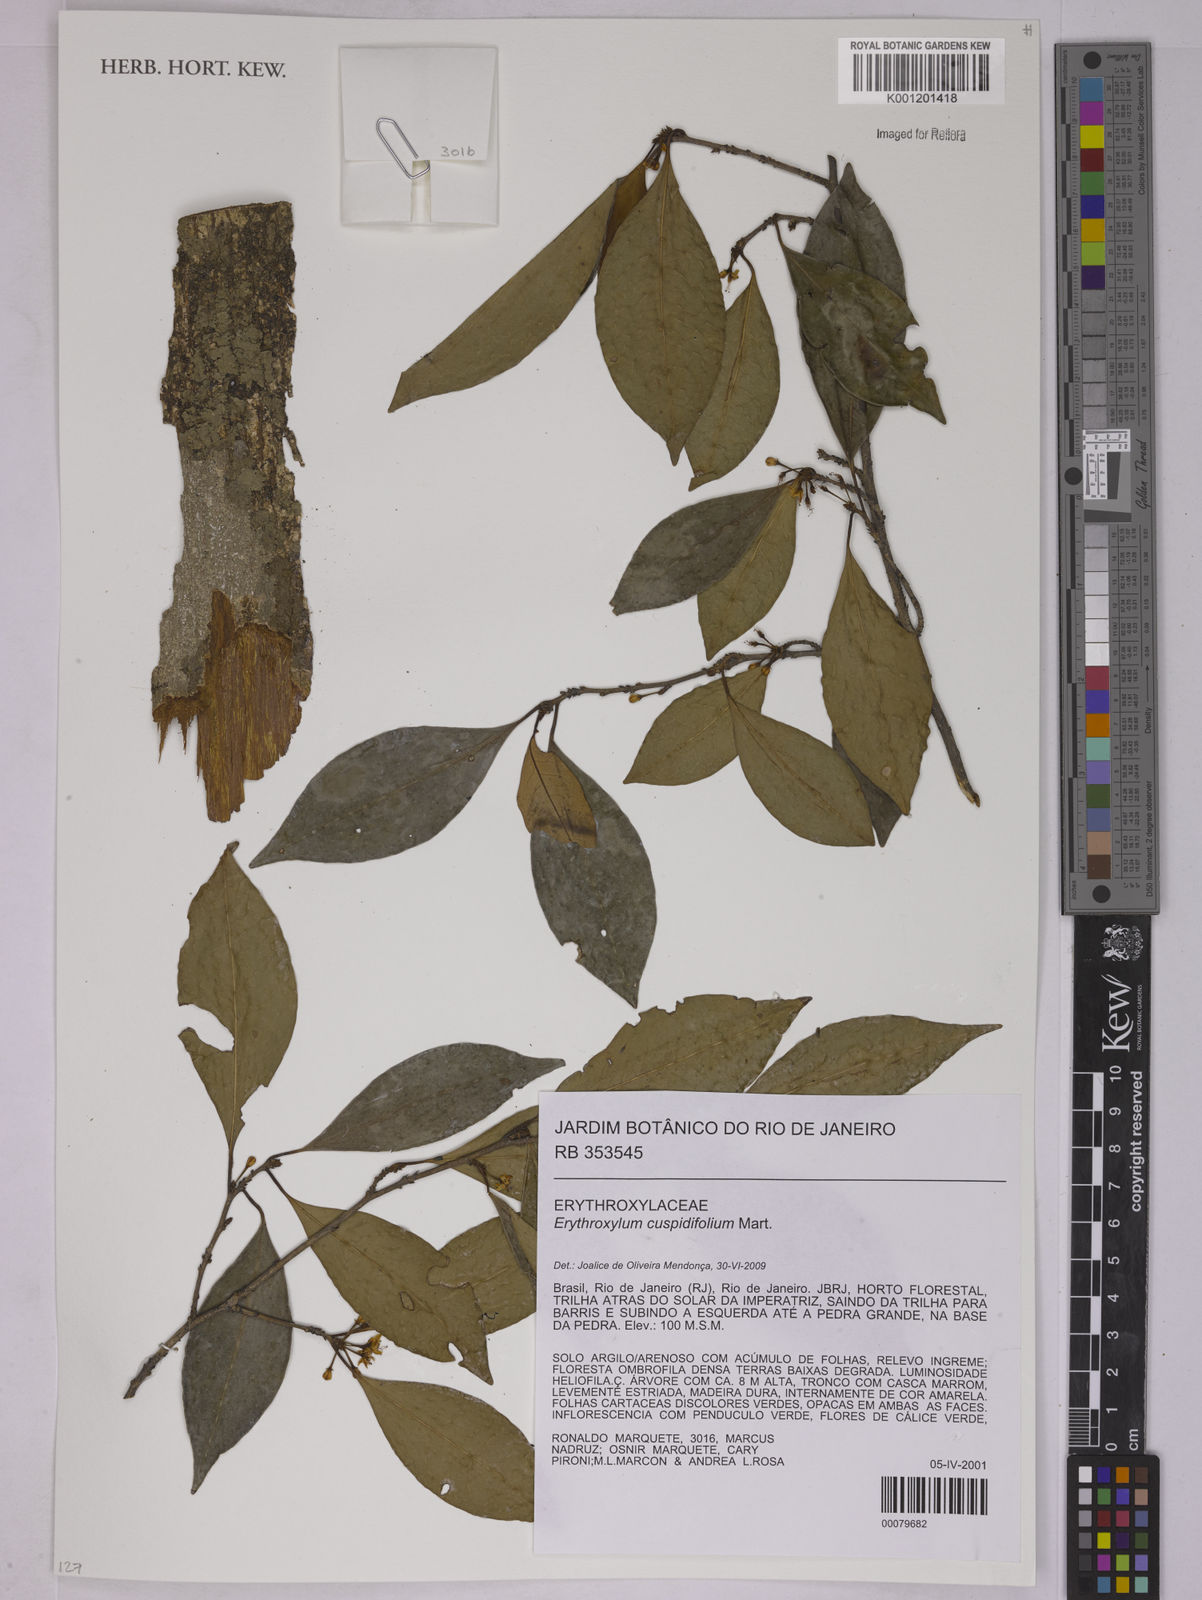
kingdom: Plantae
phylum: Tracheophyta
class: Magnoliopsida
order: Malpighiales
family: Erythroxylaceae
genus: Erythroxylum
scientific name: Erythroxylum cuspidifolium
